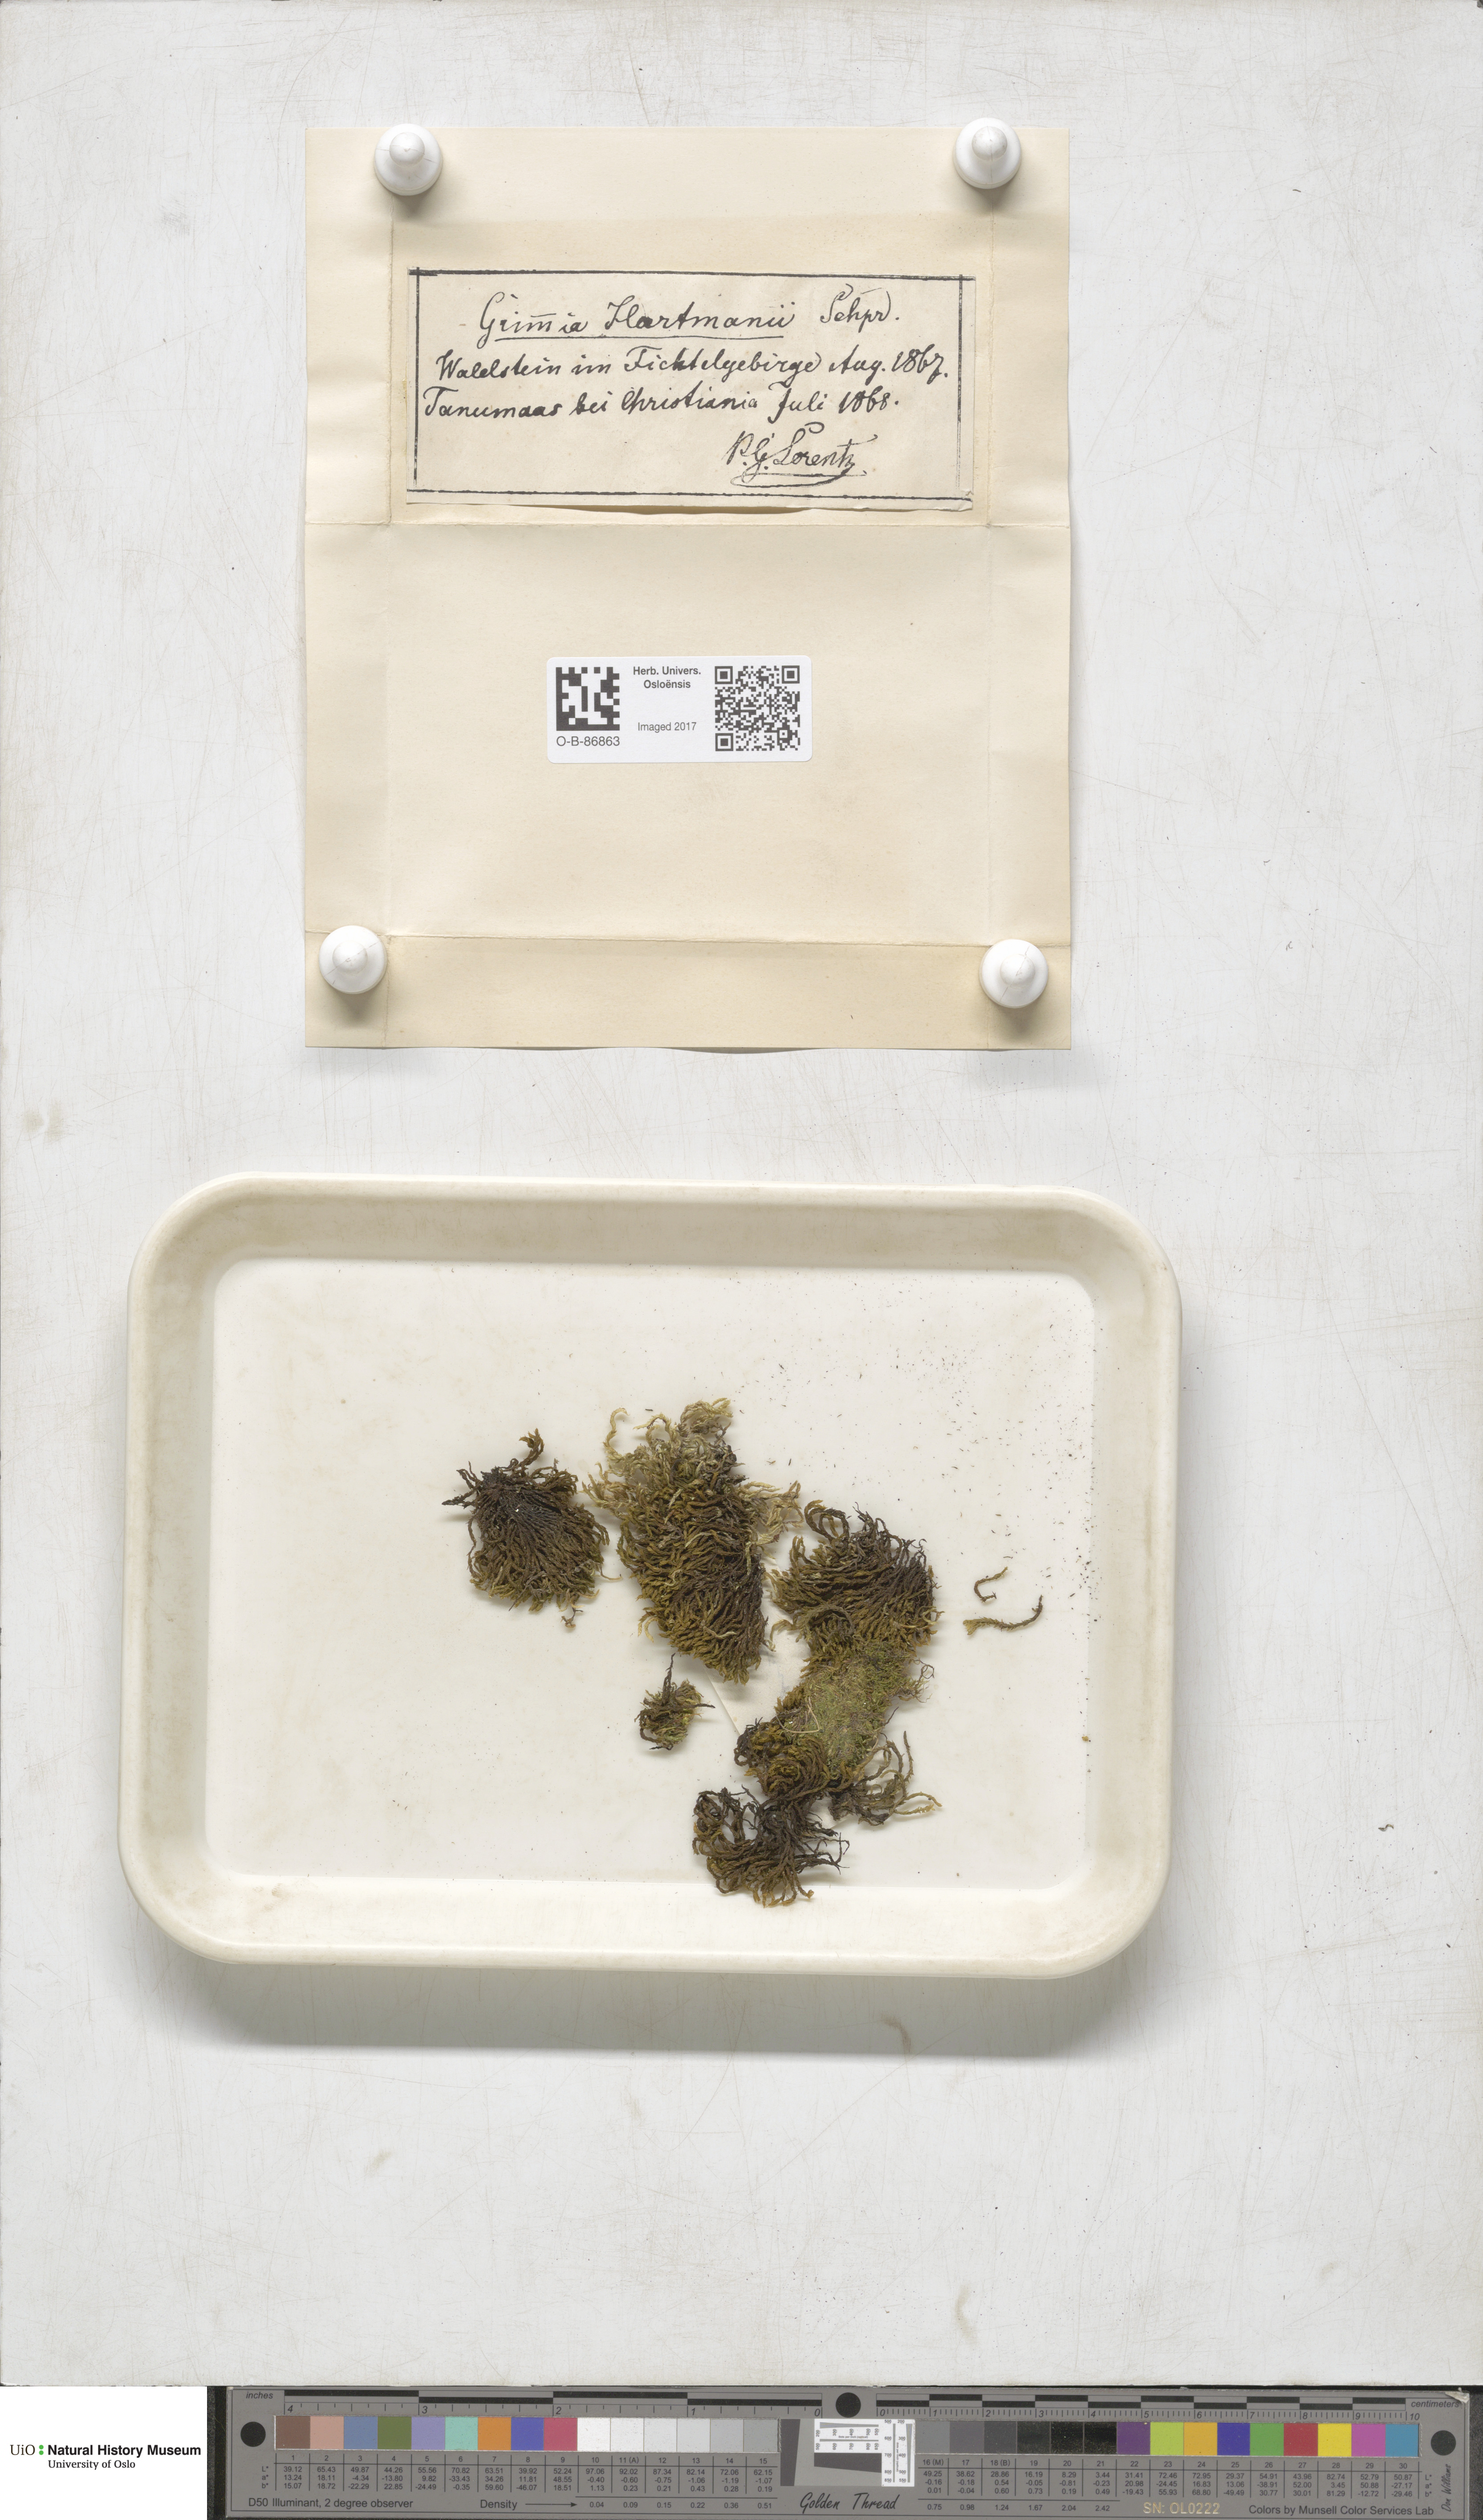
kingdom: Plantae
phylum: Bryophyta
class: Bryopsida
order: Grimmiales
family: Grimmiaceae
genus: Grimmia
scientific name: Grimmia hartmanii
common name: Hartman's grimmia
